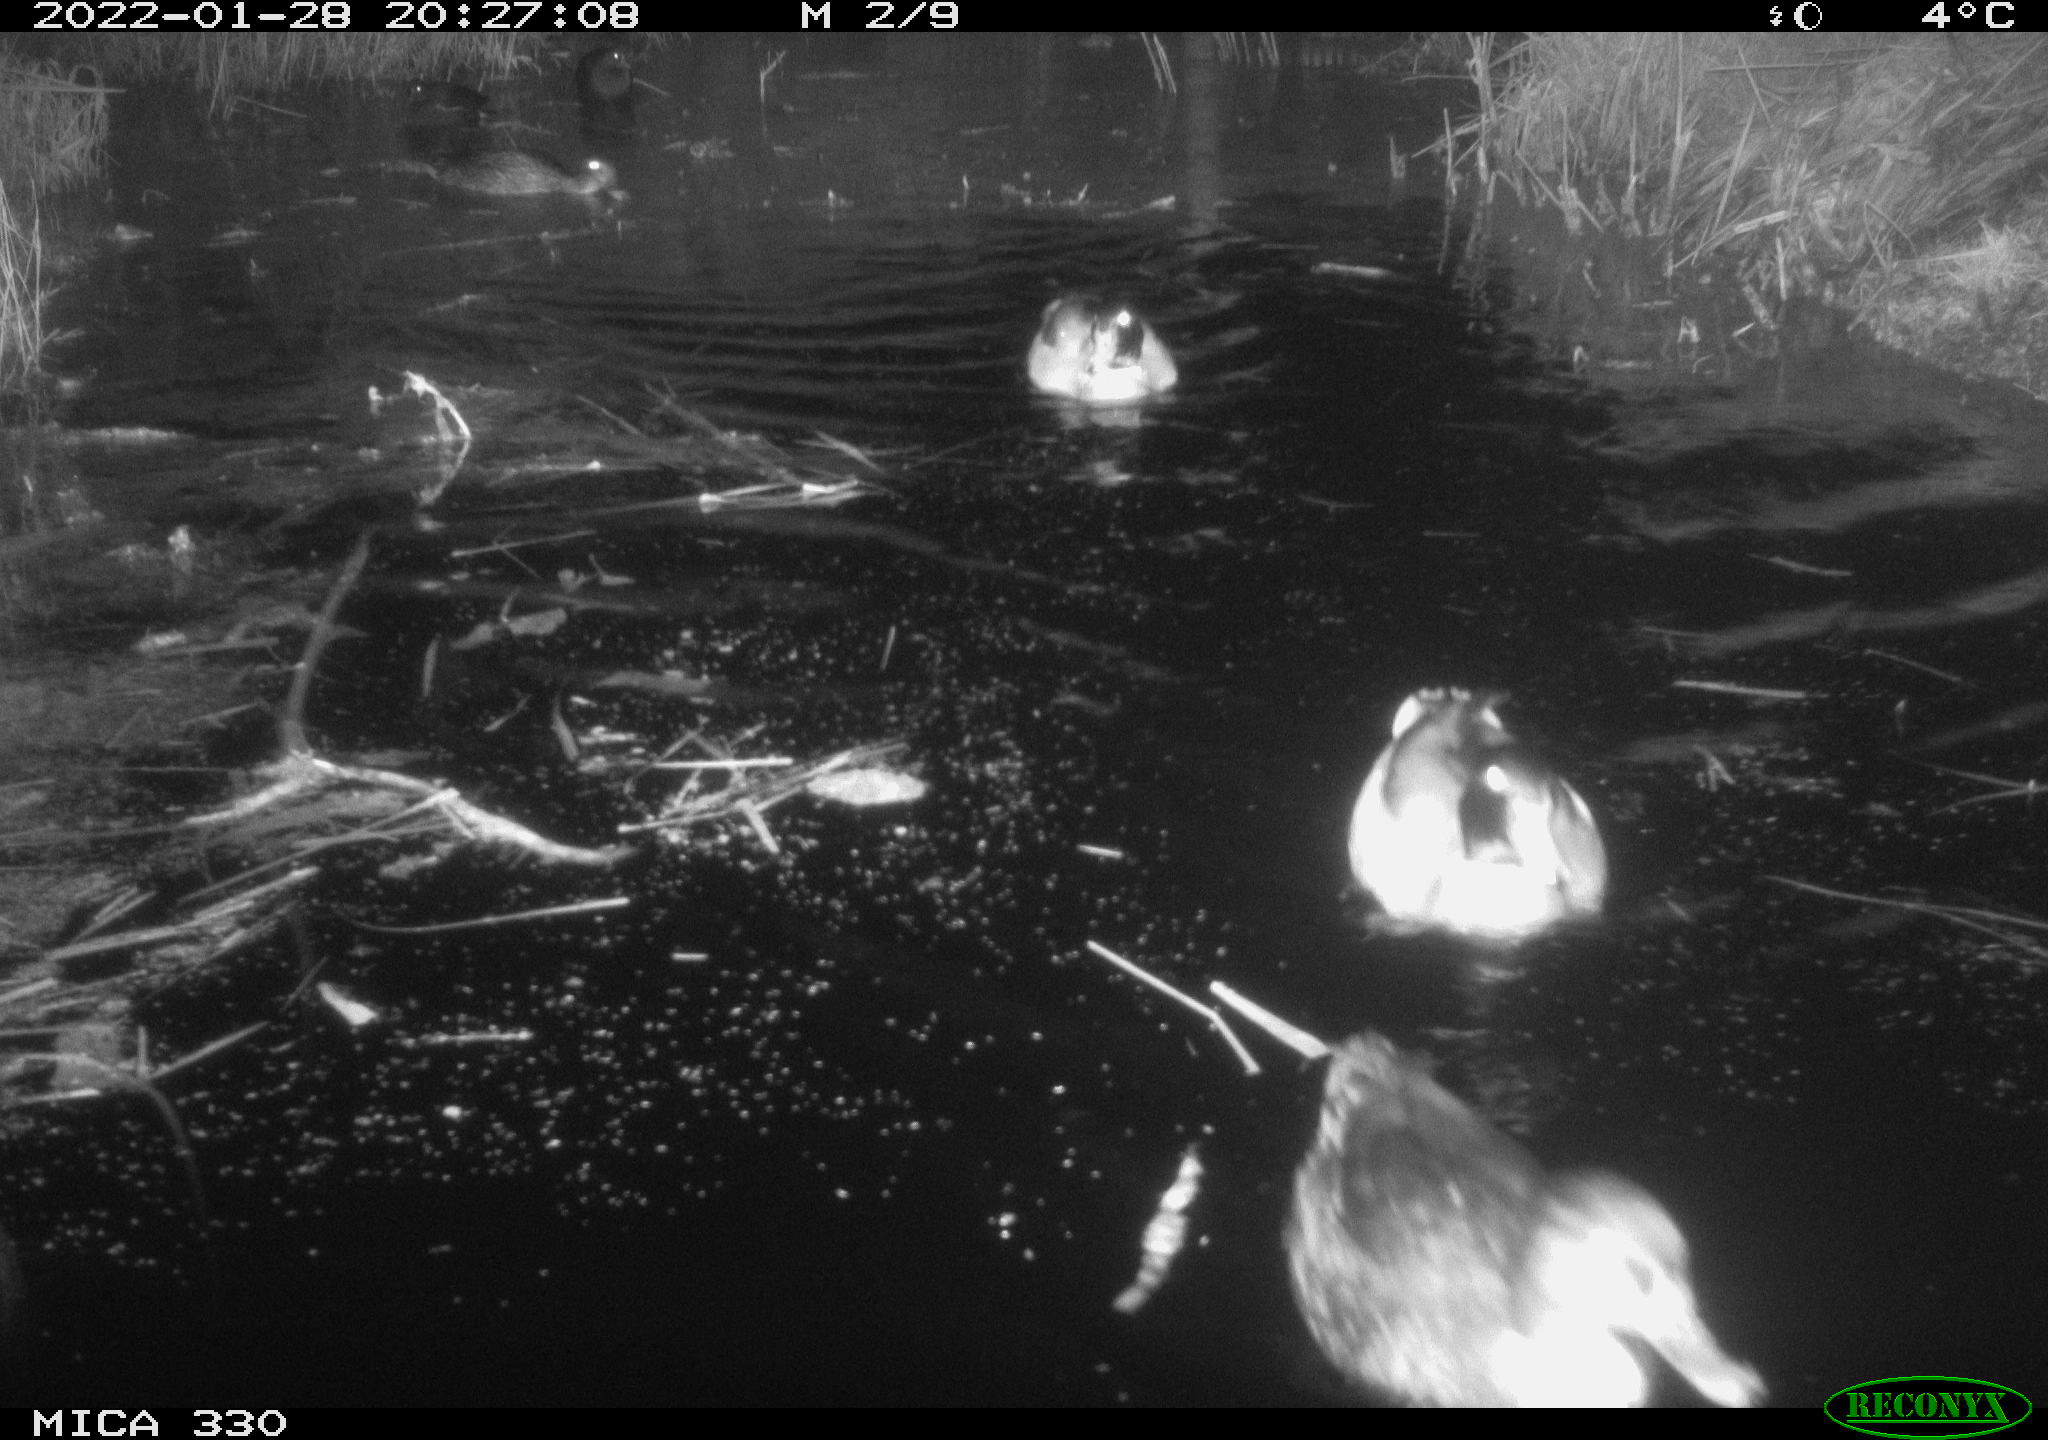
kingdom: Animalia
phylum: Chordata
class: Aves
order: Anseriformes
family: Anatidae
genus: Anas
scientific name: Anas platyrhynchos
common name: Mallard
